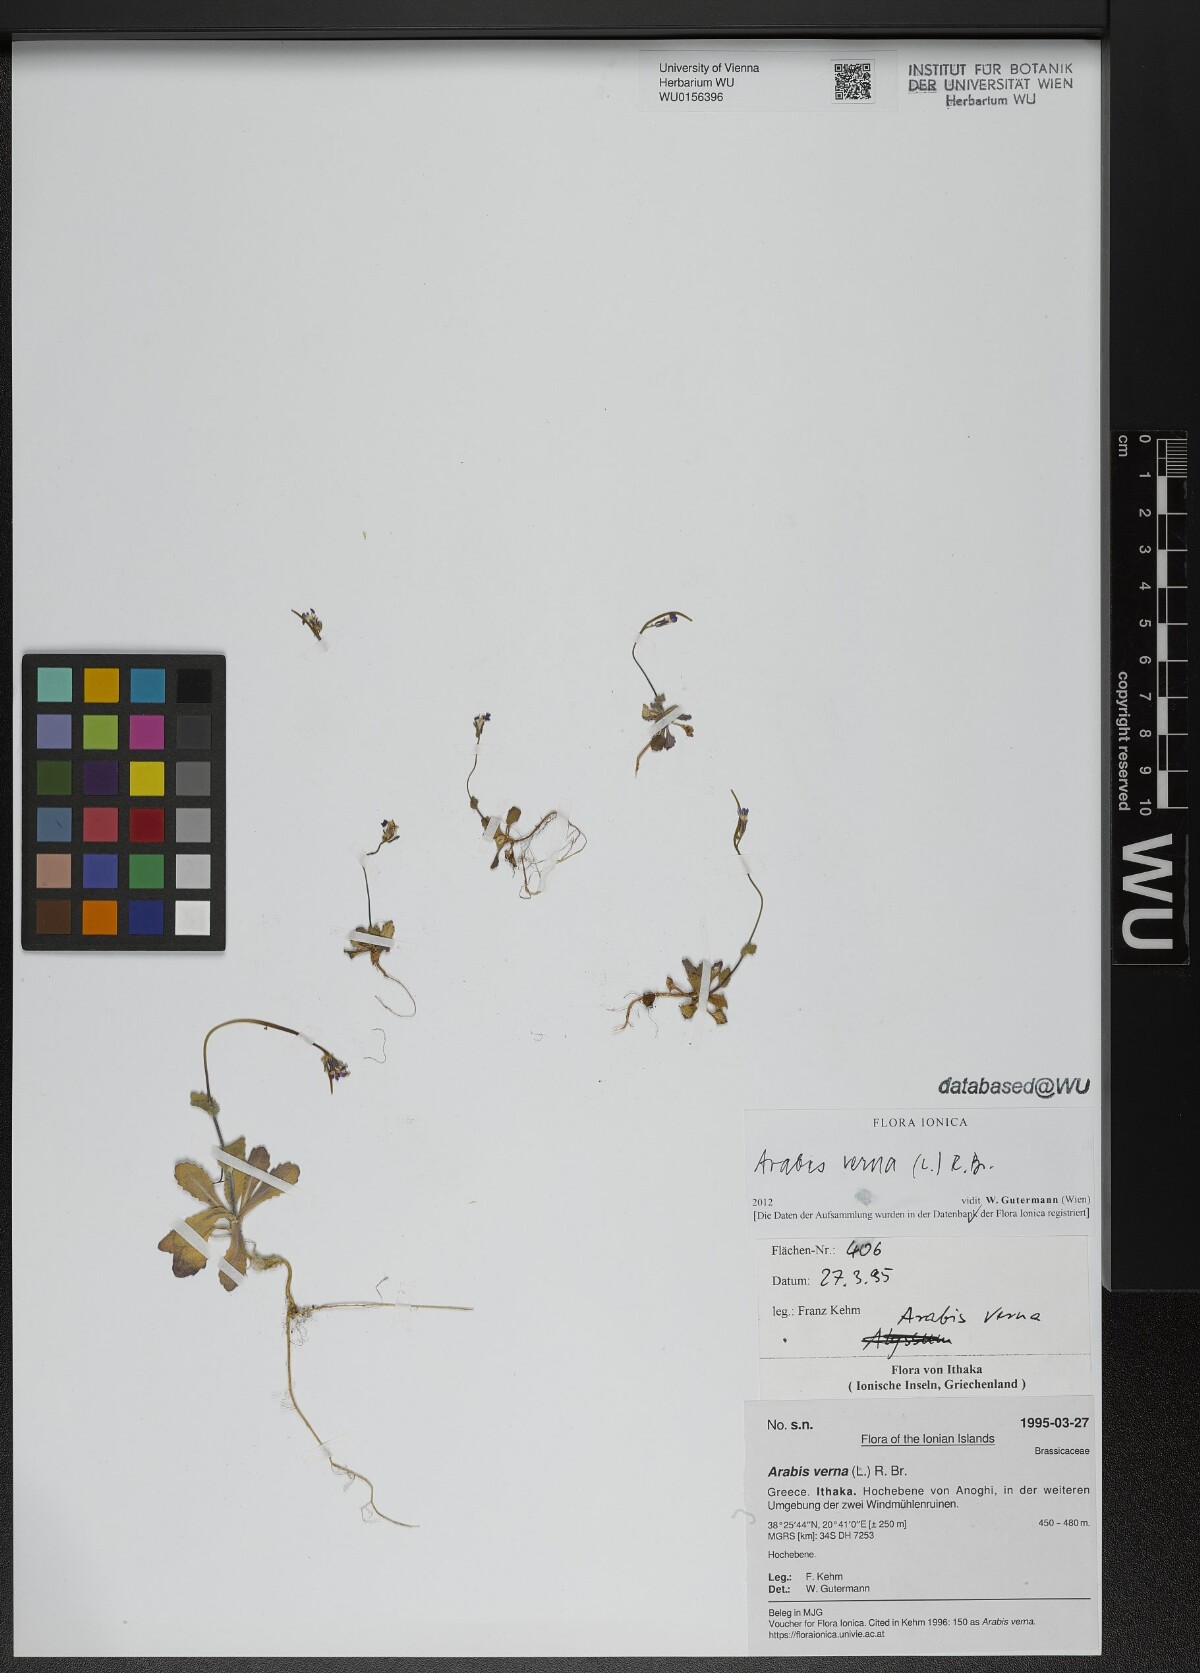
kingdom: Plantae
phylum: Tracheophyta
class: Magnoliopsida
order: Brassicales
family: Brassicaceae
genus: Arabis
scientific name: Arabis verna
